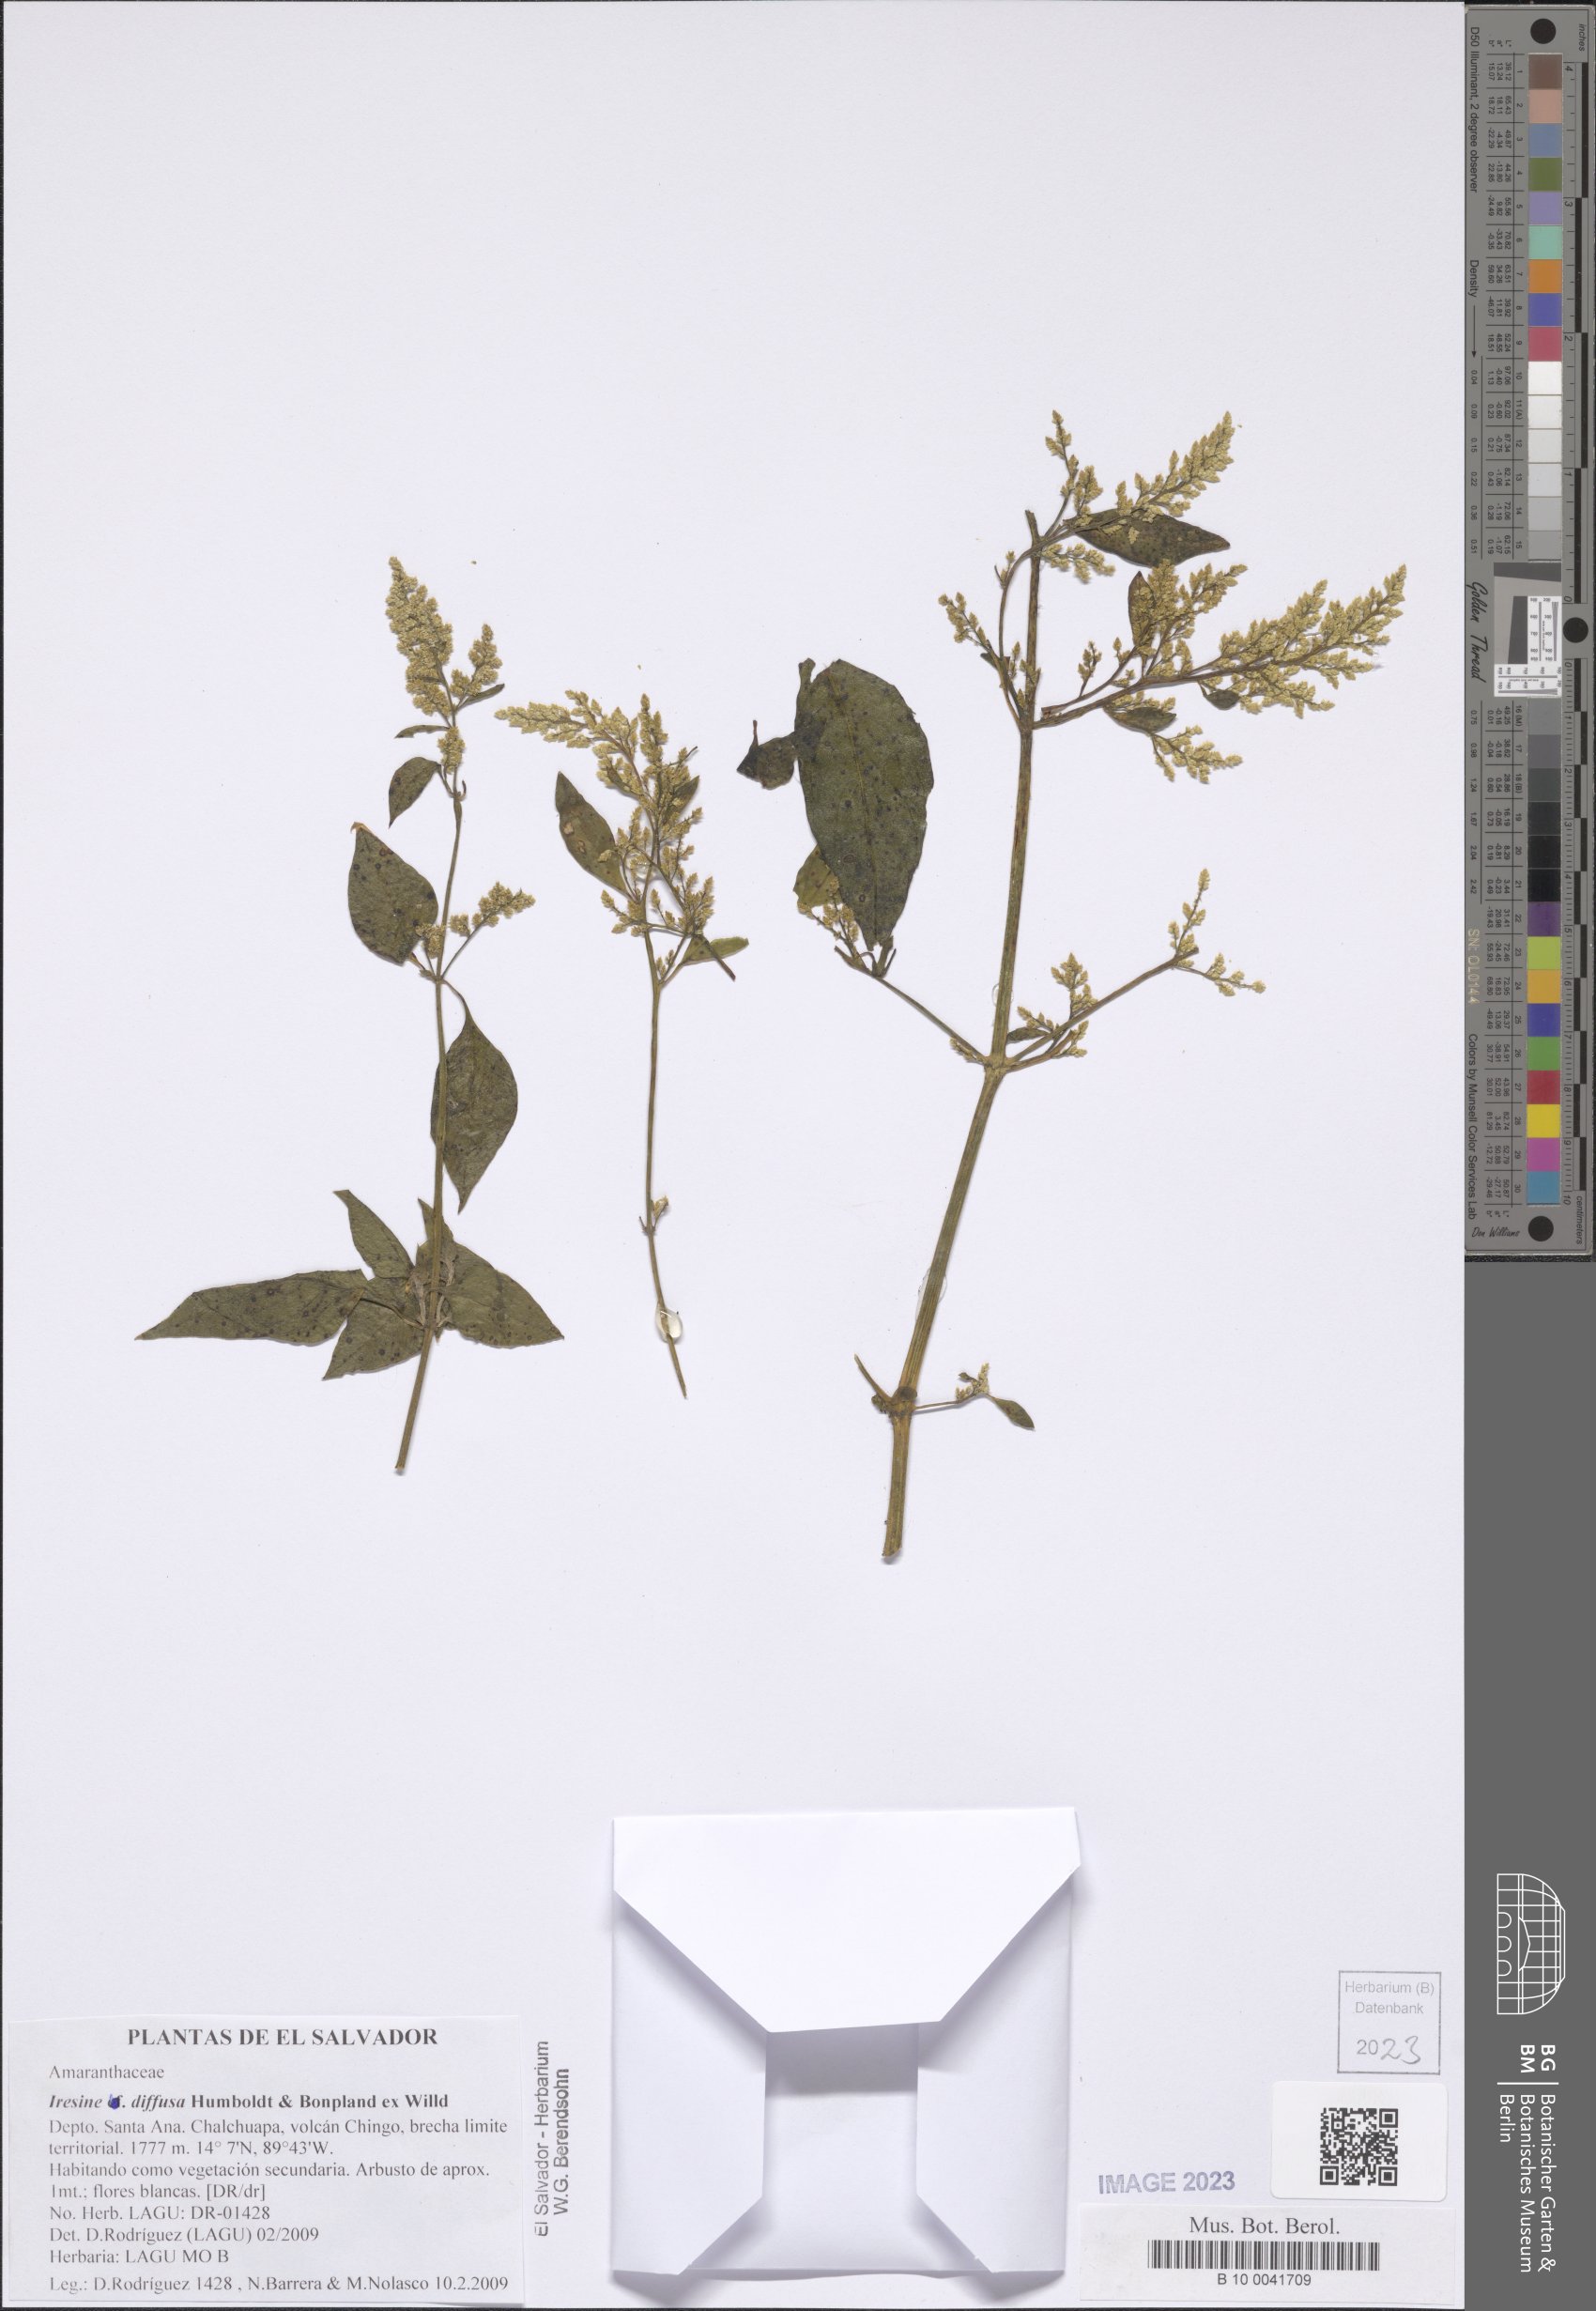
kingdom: Plantae
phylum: Tracheophyta
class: Magnoliopsida
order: Caryophyllales
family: Amaranthaceae
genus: Iresine
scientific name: Iresine diffusa
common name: Juba's-bush
